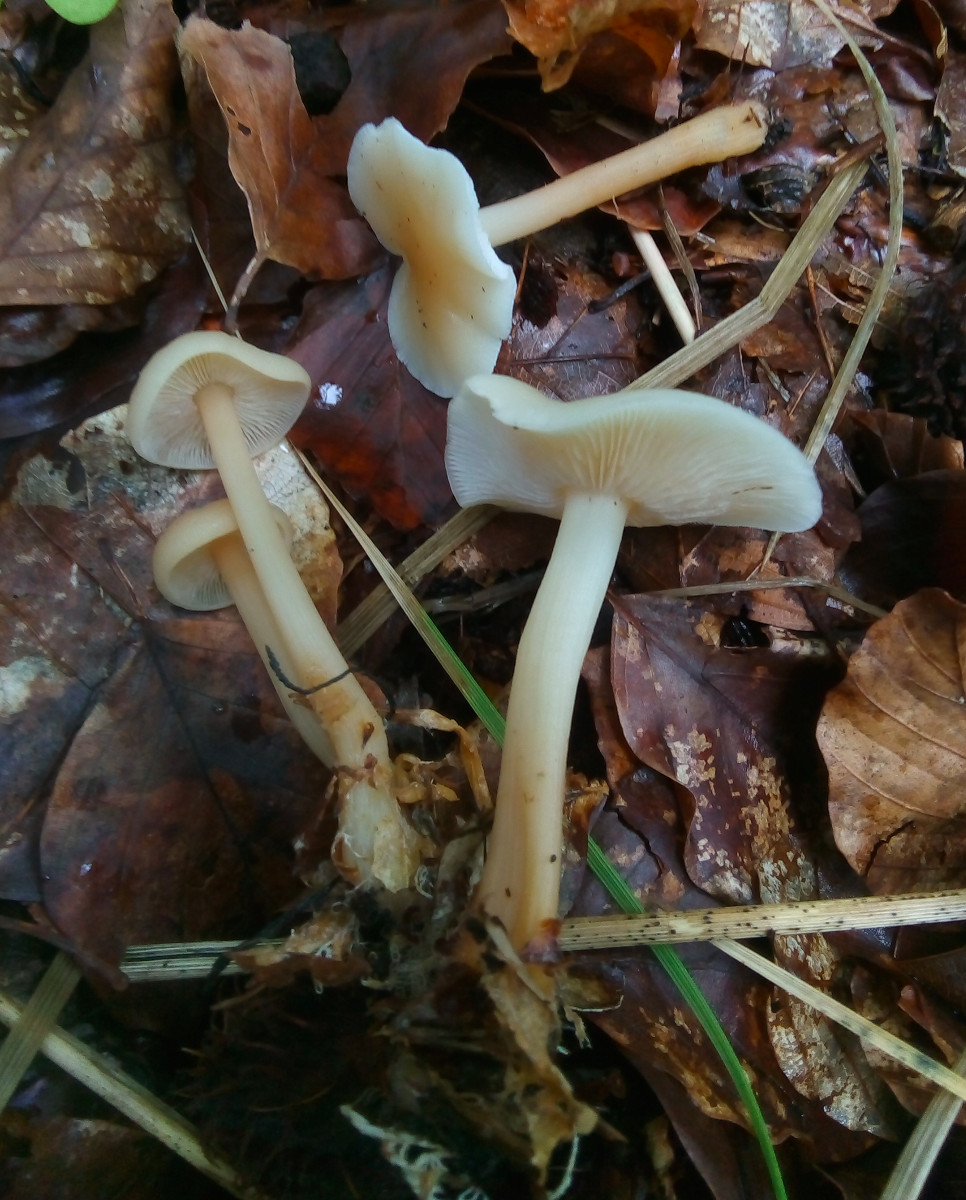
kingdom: Fungi
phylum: Basidiomycota
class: Agaricomycetes
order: Agaricales
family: Omphalotaceae
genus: Gymnopus
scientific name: Gymnopus dryophilus
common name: løv-fladhat
